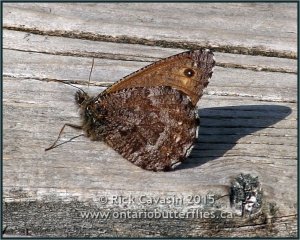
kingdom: Animalia
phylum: Arthropoda
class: Insecta
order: Lepidoptera
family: Nymphalidae
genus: Oeneis
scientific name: Oeneis jutta
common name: Jutta Arctic
